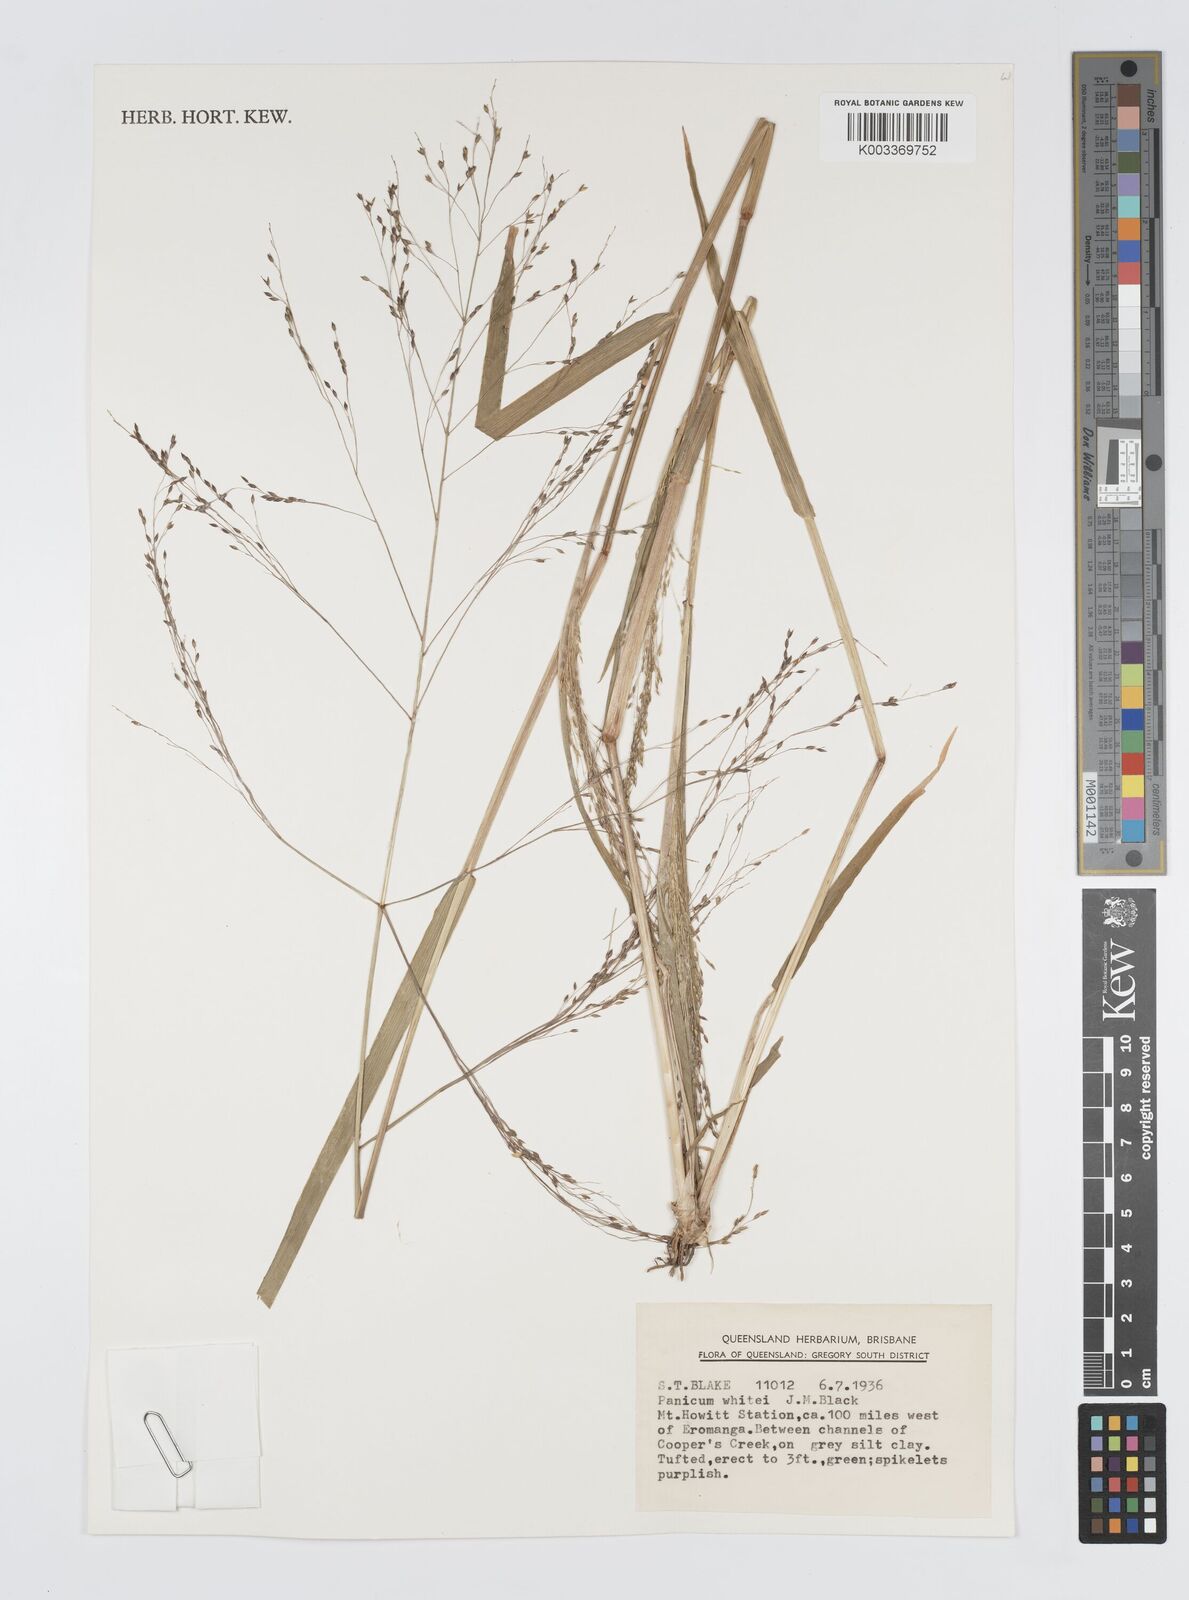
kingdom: Plantae
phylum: Tracheophyta
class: Liliopsida
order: Poales
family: Poaceae
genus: Panicum
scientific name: Panicum laevinode
